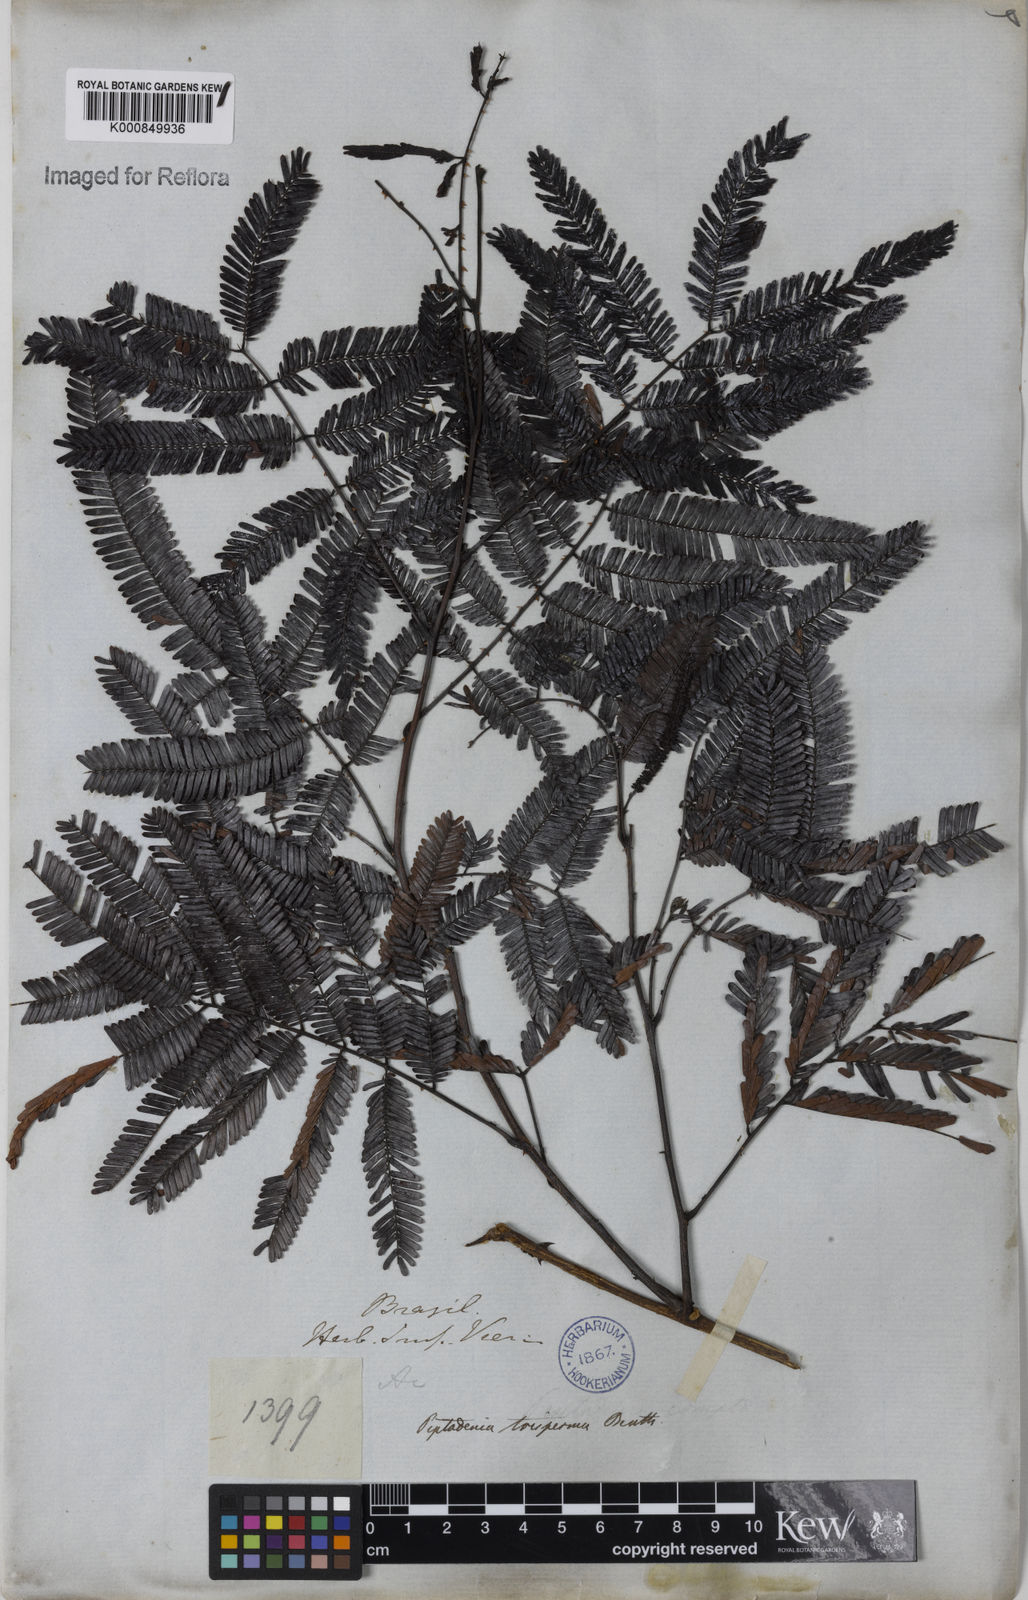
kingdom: Plantae
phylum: Tracheophyta
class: Magnoliopsida
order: Fabales
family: Fabaceae
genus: Piptadenia
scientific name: Piptadenia trisperma
